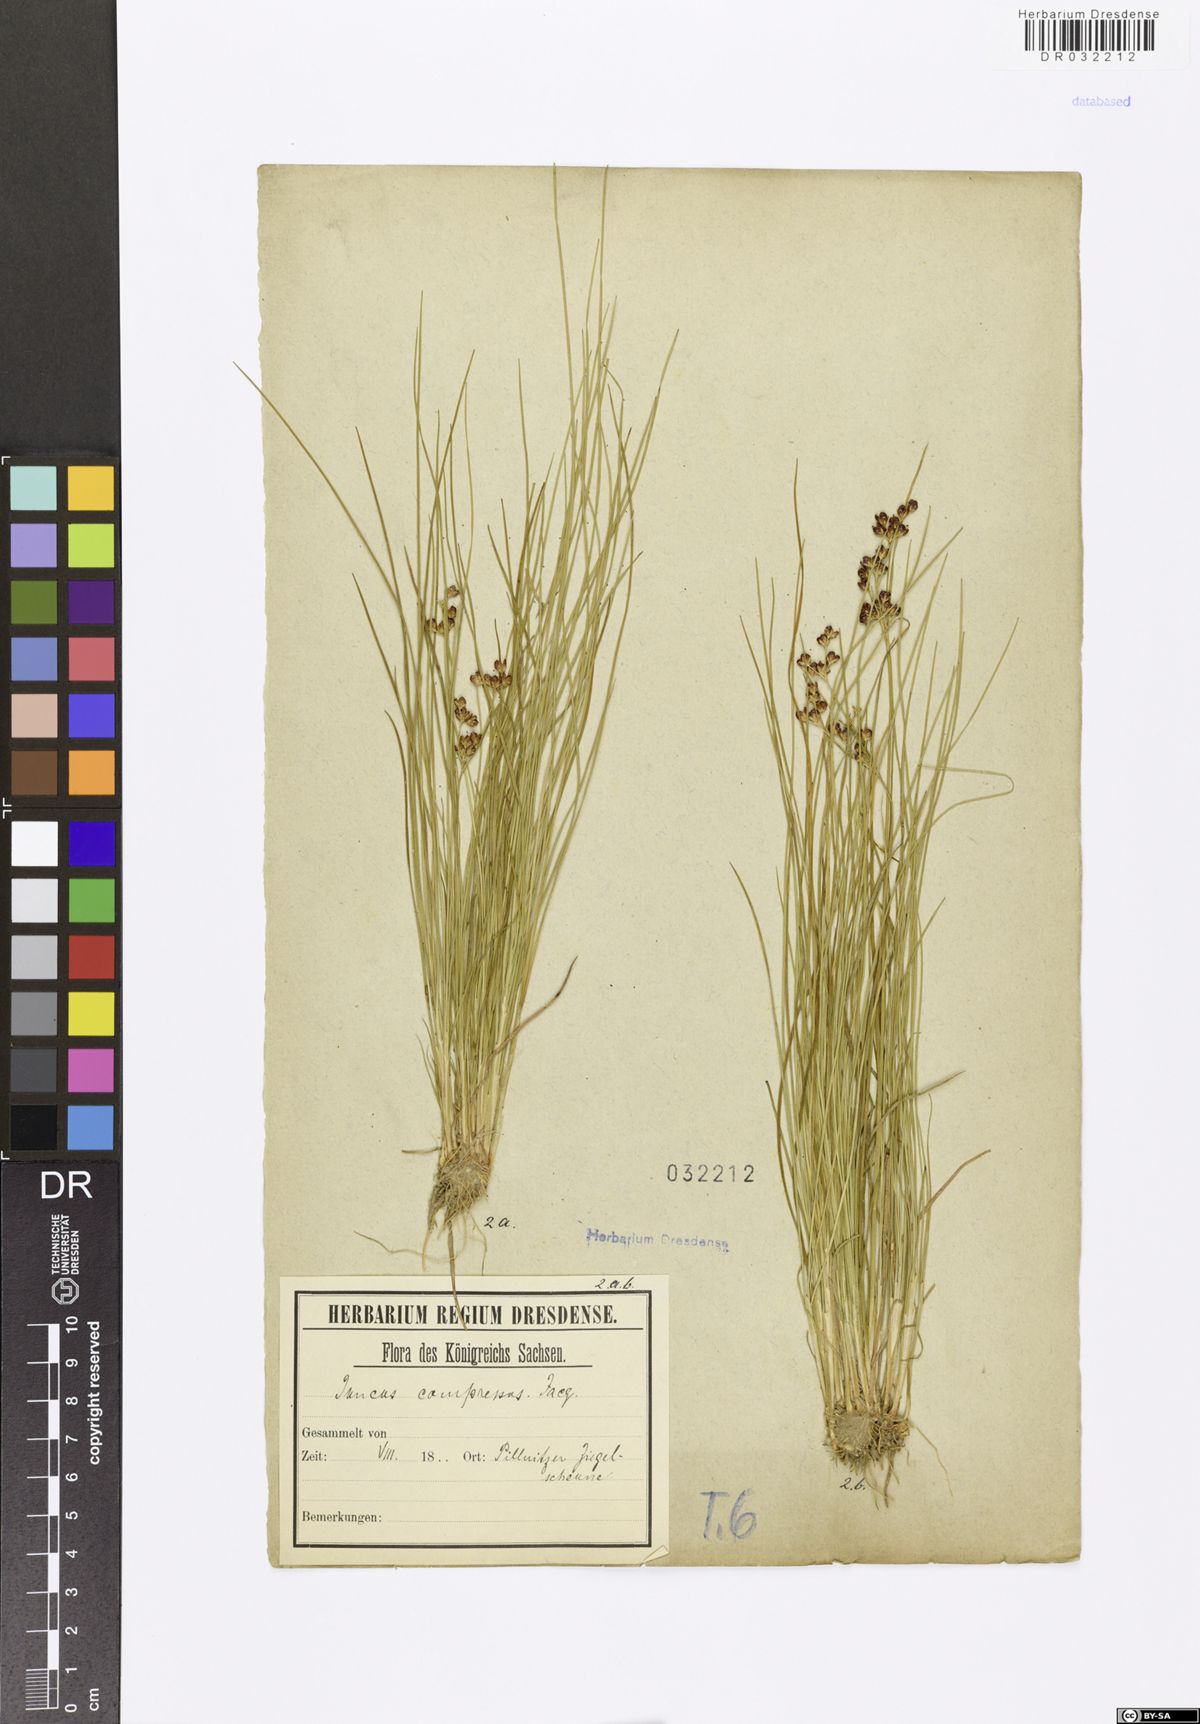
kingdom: Plantae
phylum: Tracheophyta
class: Liliopsida
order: Poales
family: Juncaceae
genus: Juncus
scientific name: Juncus compressus
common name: Round-fruited rush
